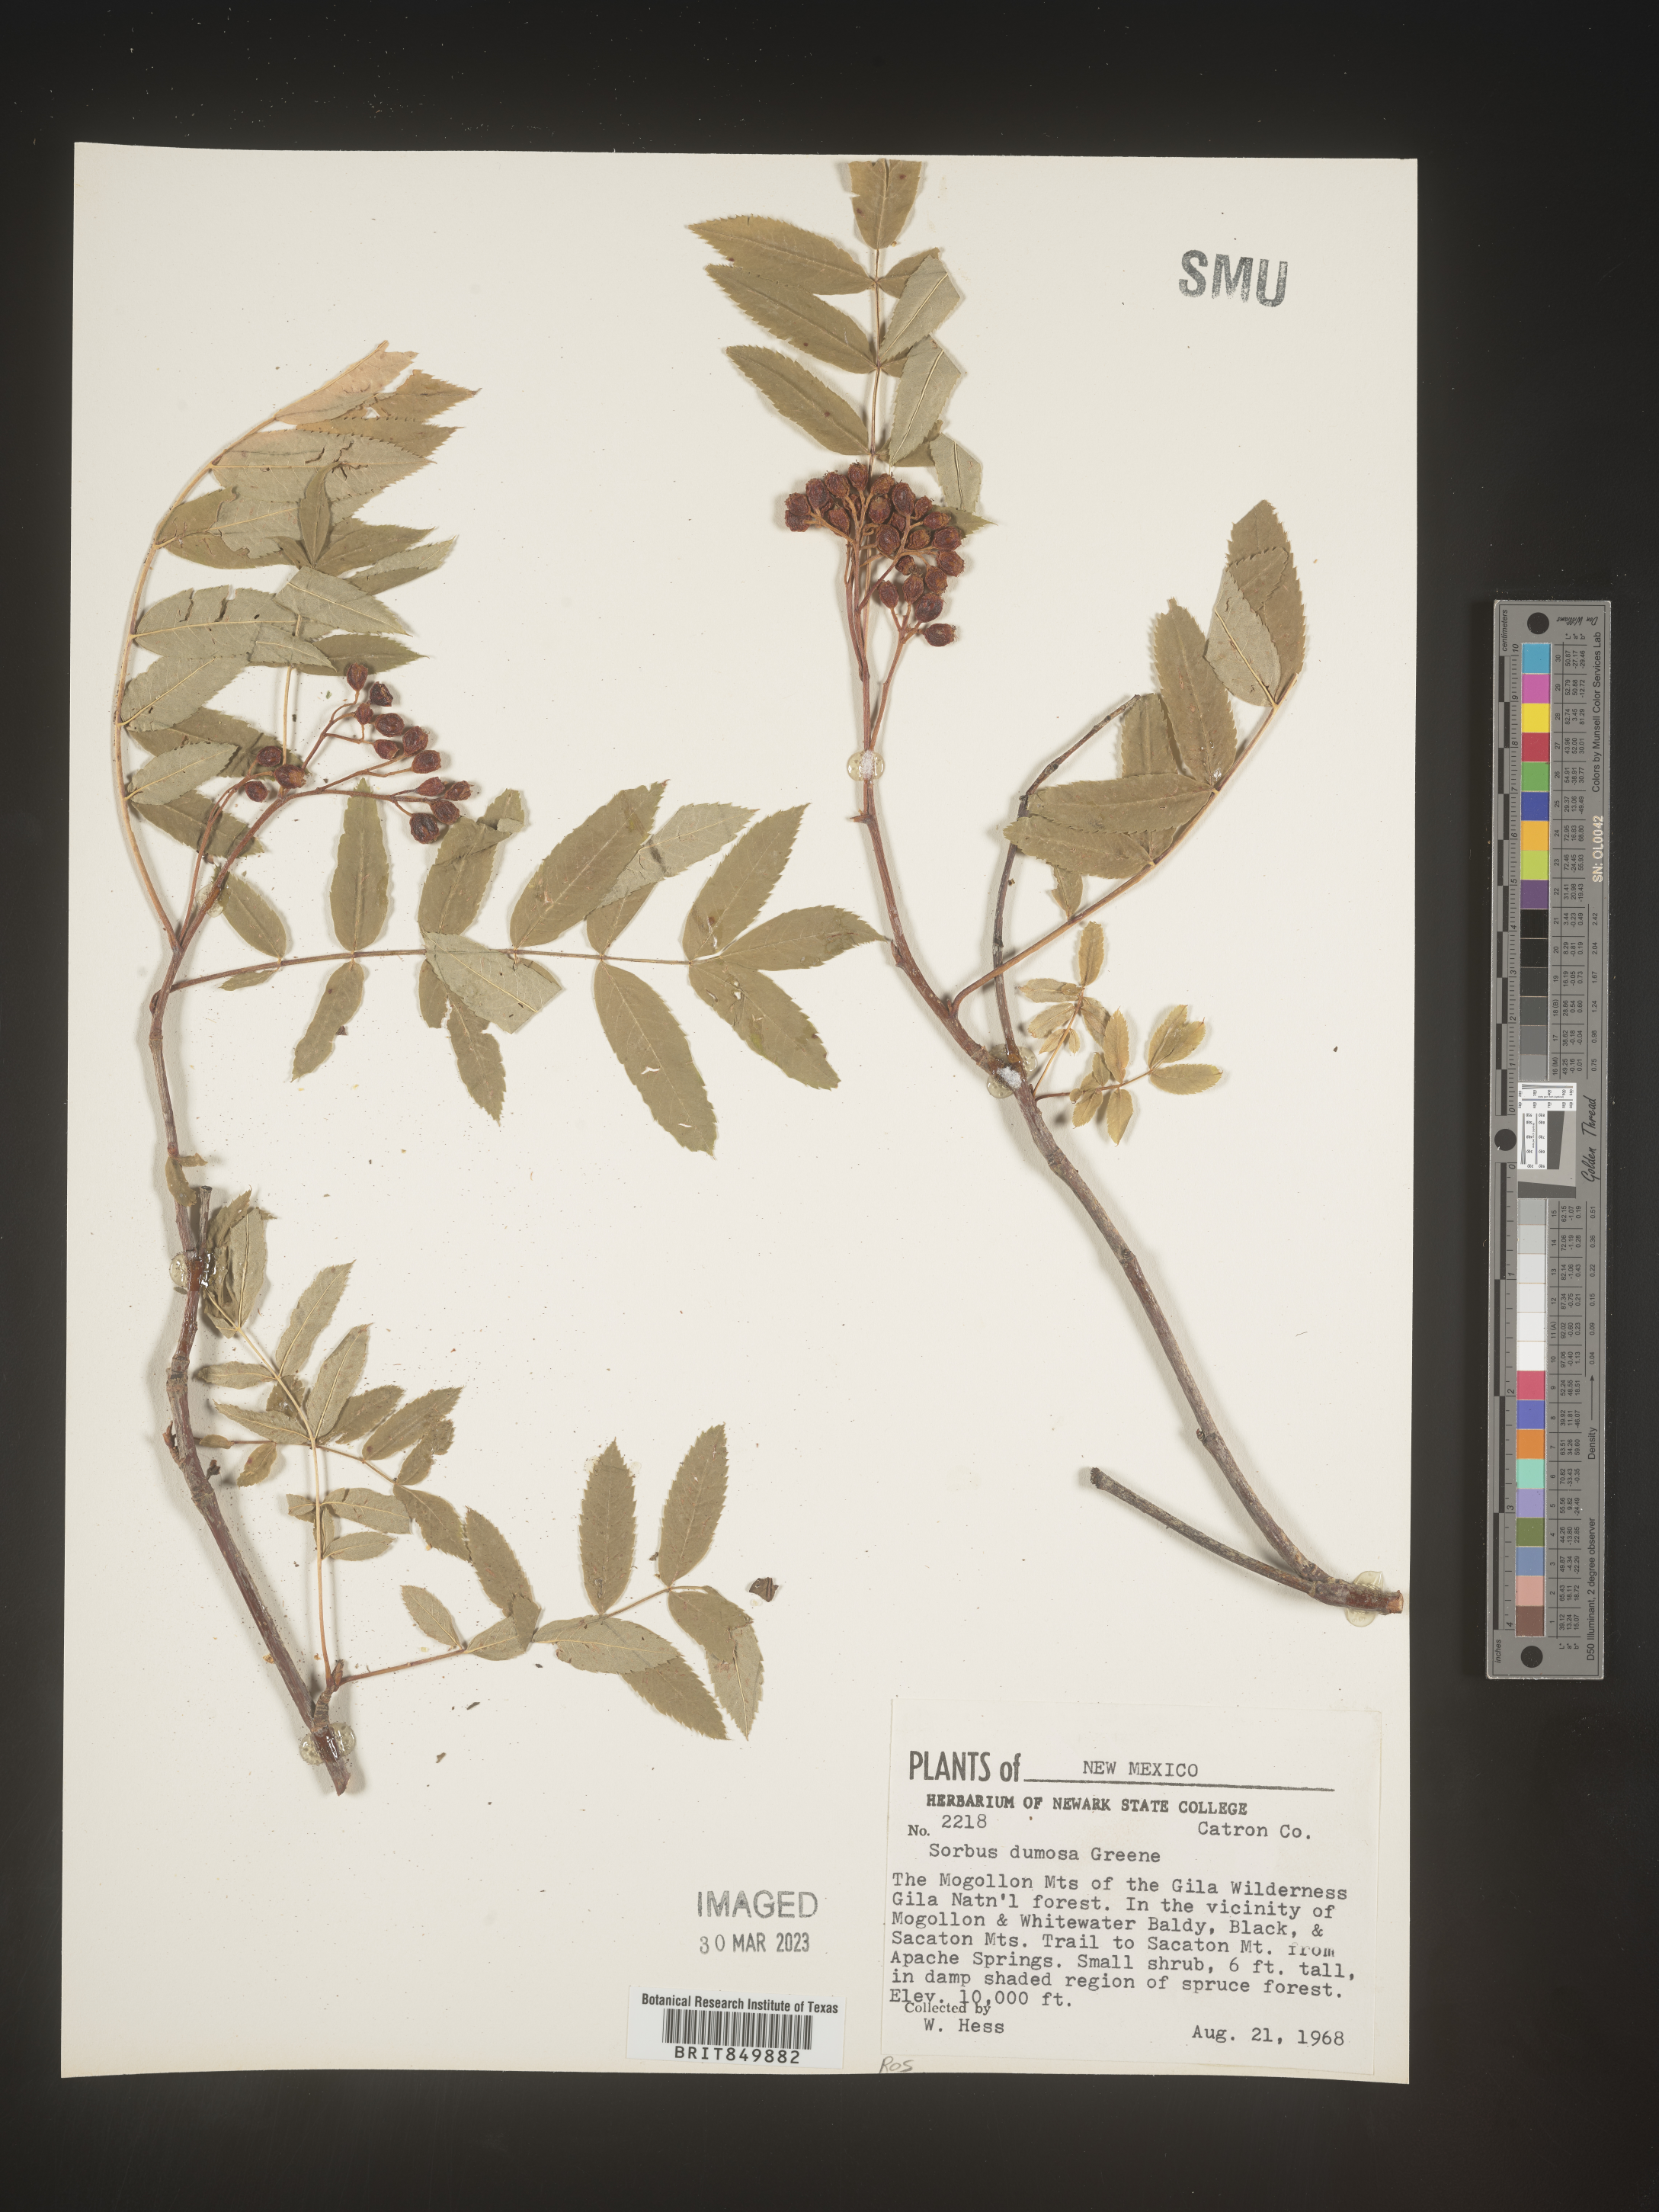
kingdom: Plantae
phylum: Tracheophyta
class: Magnoliopsida
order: Rosales
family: Rosaceae
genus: Sorbus
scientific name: Sorbus
